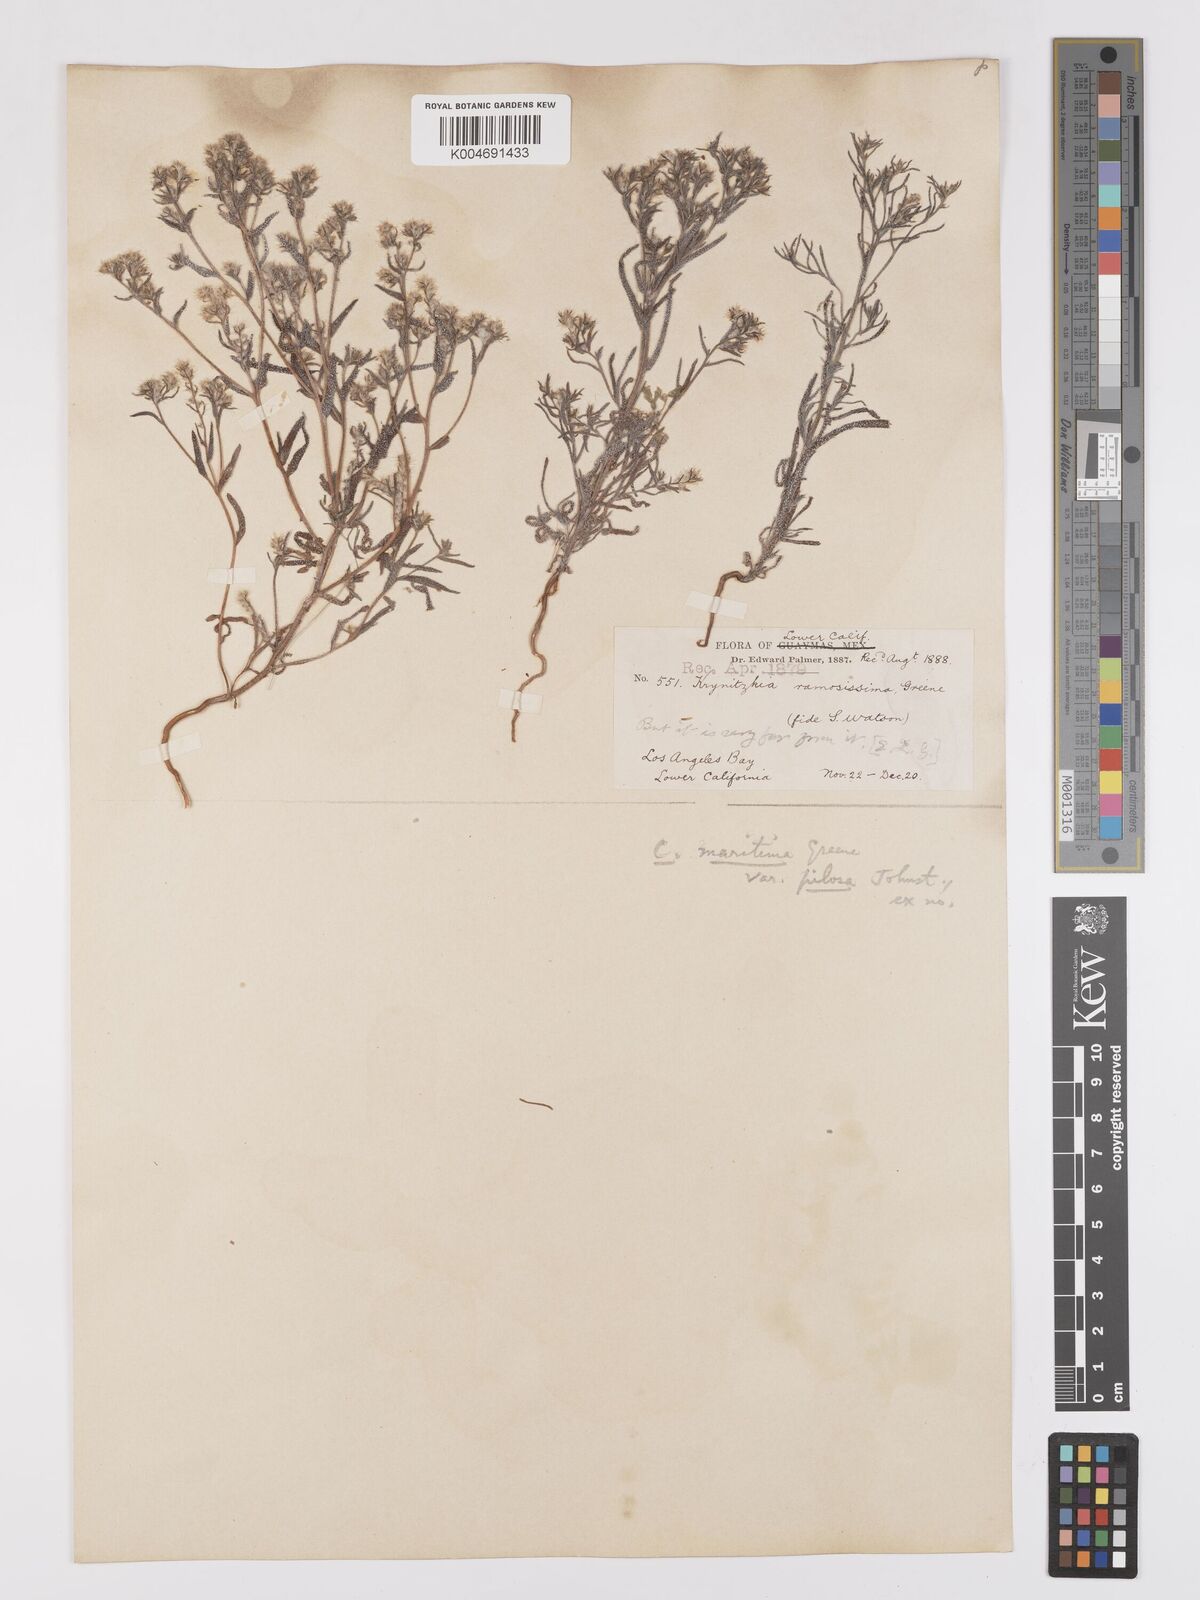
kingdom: Plantae
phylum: Tracheophyta
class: Magnoliopsida
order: Boraginales
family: Boraginaceae
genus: Cryptantha
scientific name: Cryptantha maritima
